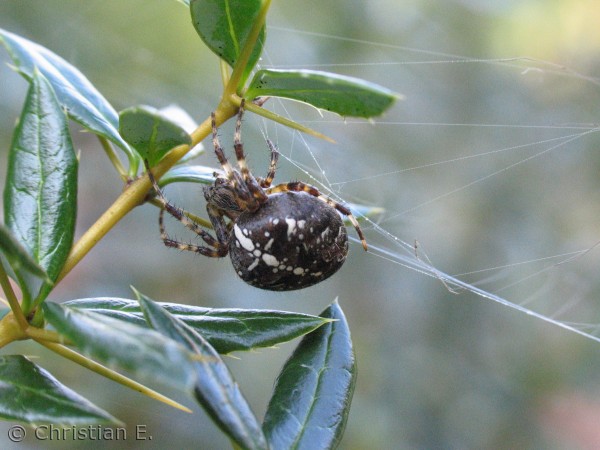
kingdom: Animalia
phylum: Arthropoda
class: Arachnida
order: Araneae
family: Araneidae
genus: Araneus
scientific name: Araneus diadematus
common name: Korsedderkop
